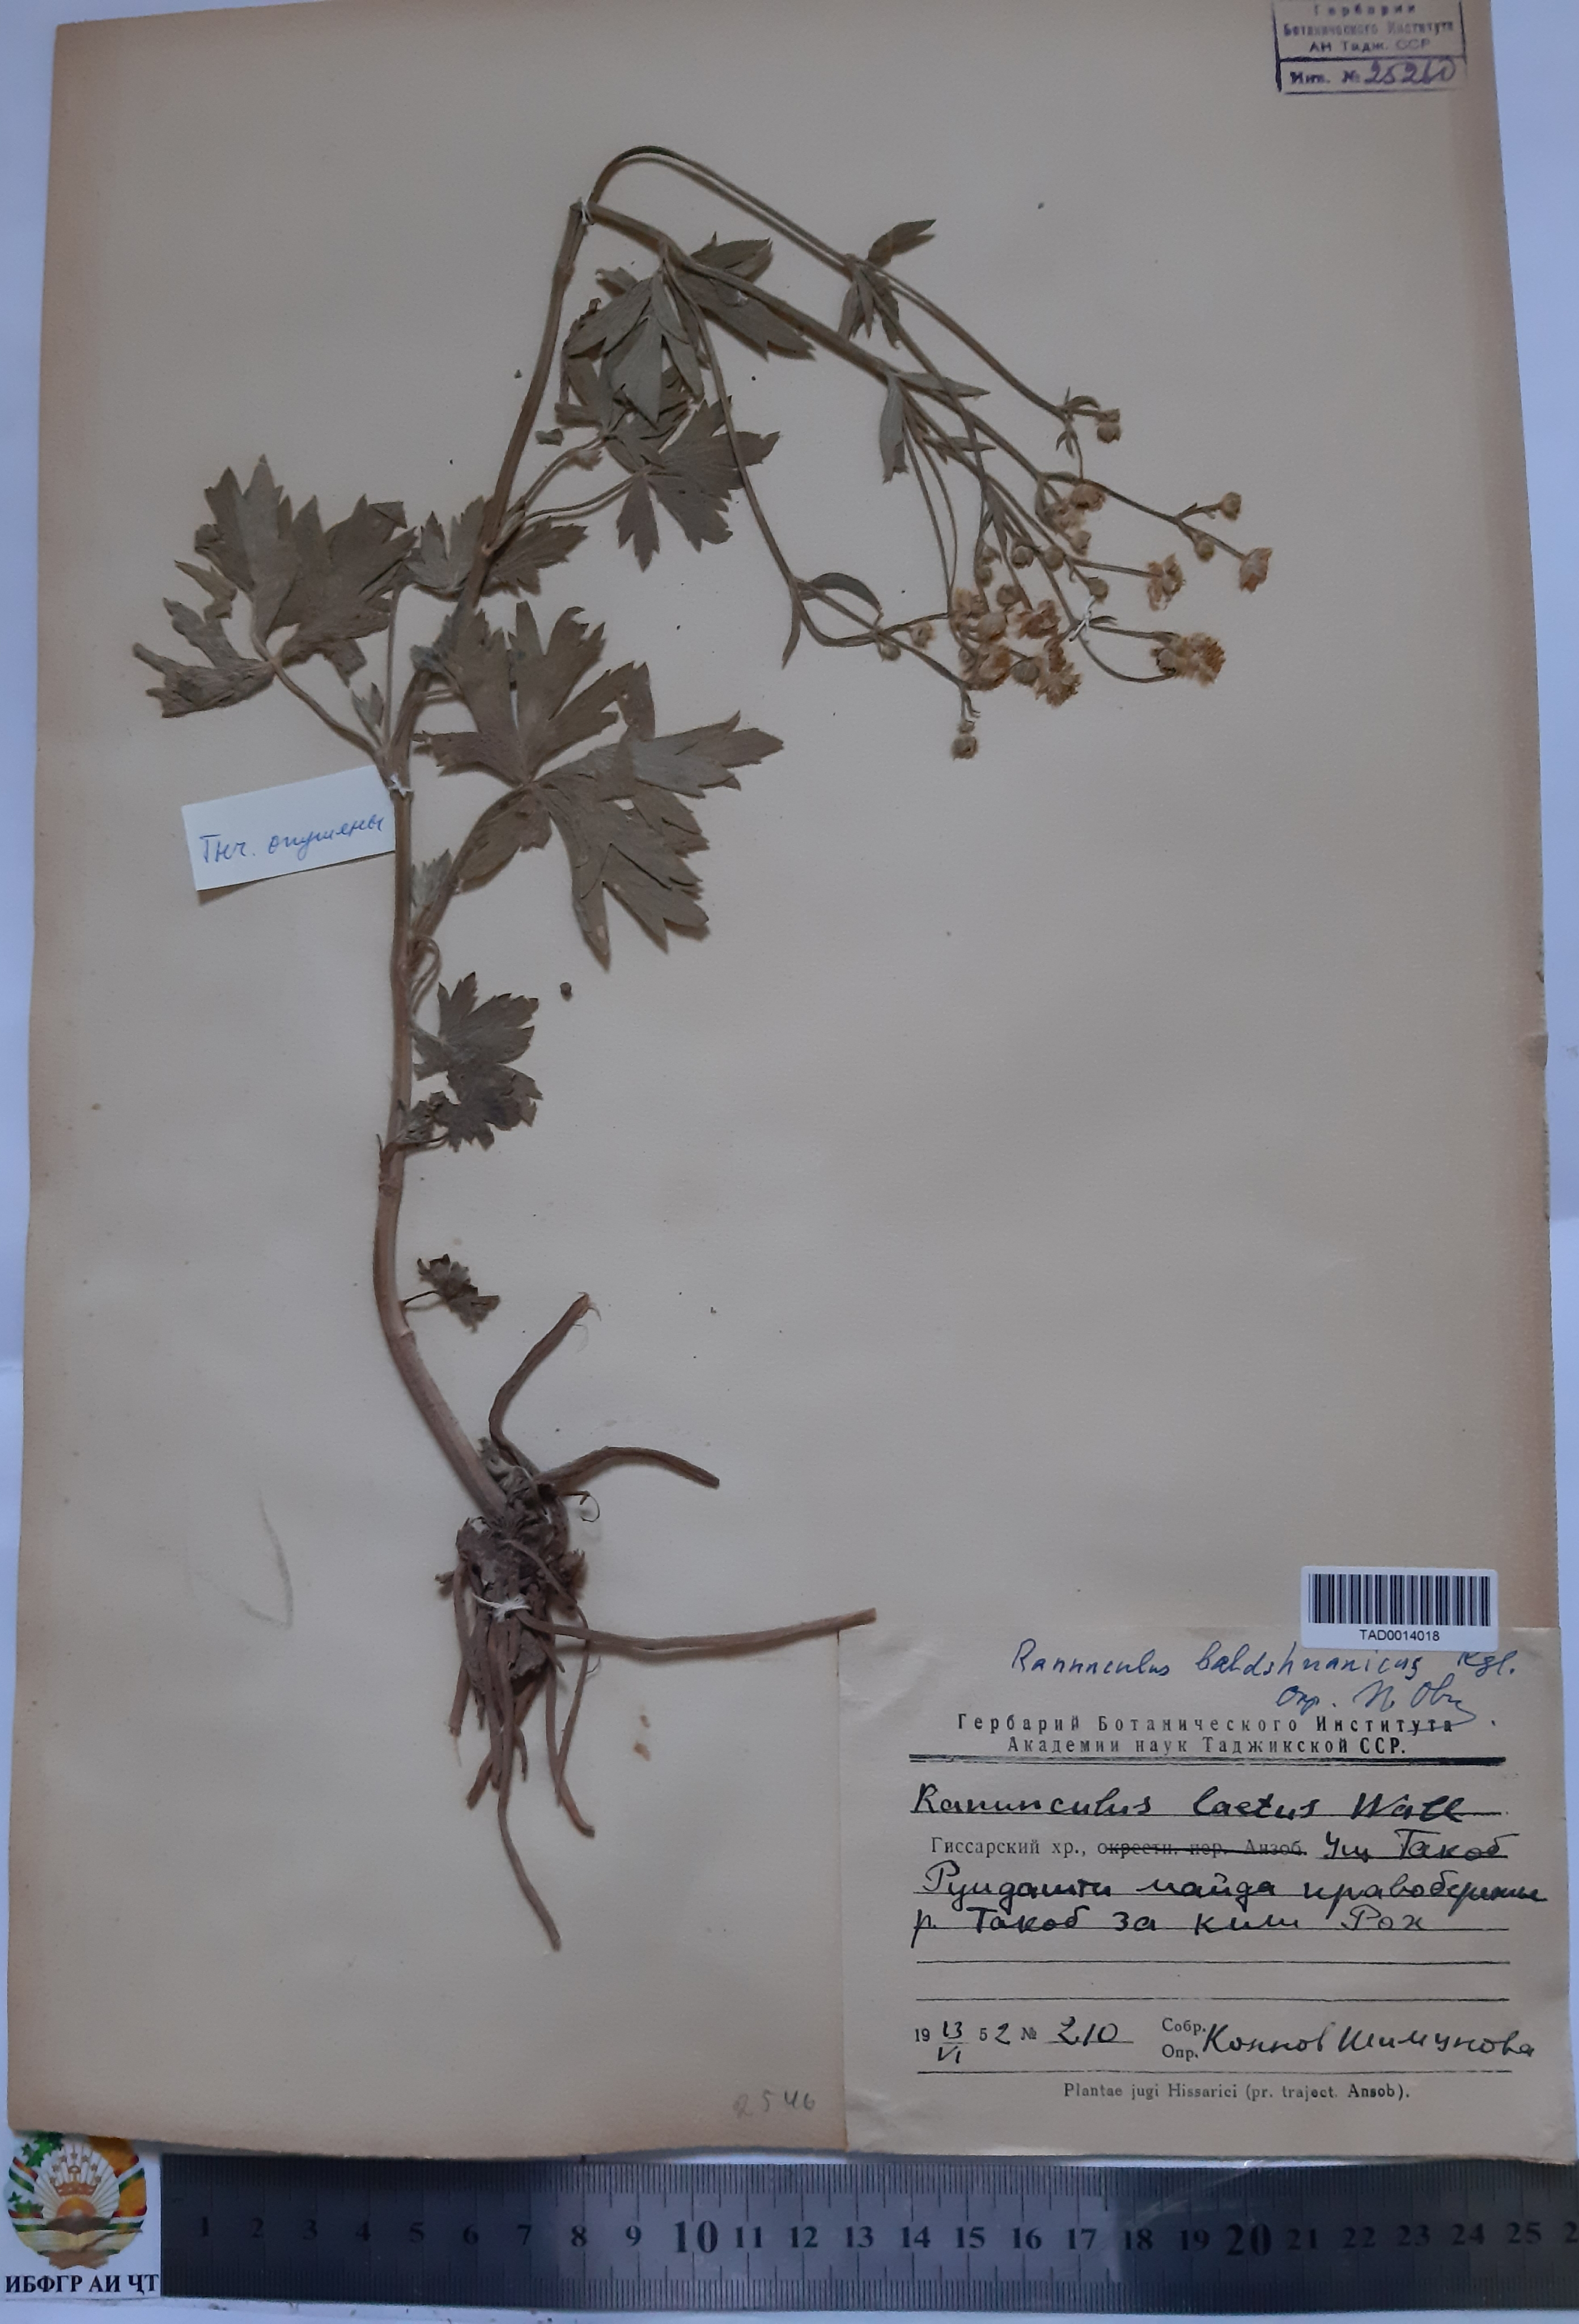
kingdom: Plantae
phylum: Tracheophyta
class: Magnoliopsida
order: Ranunculales
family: Ranunculaceae
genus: Ranunculus
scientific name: Ranunculus baldshuanicus
